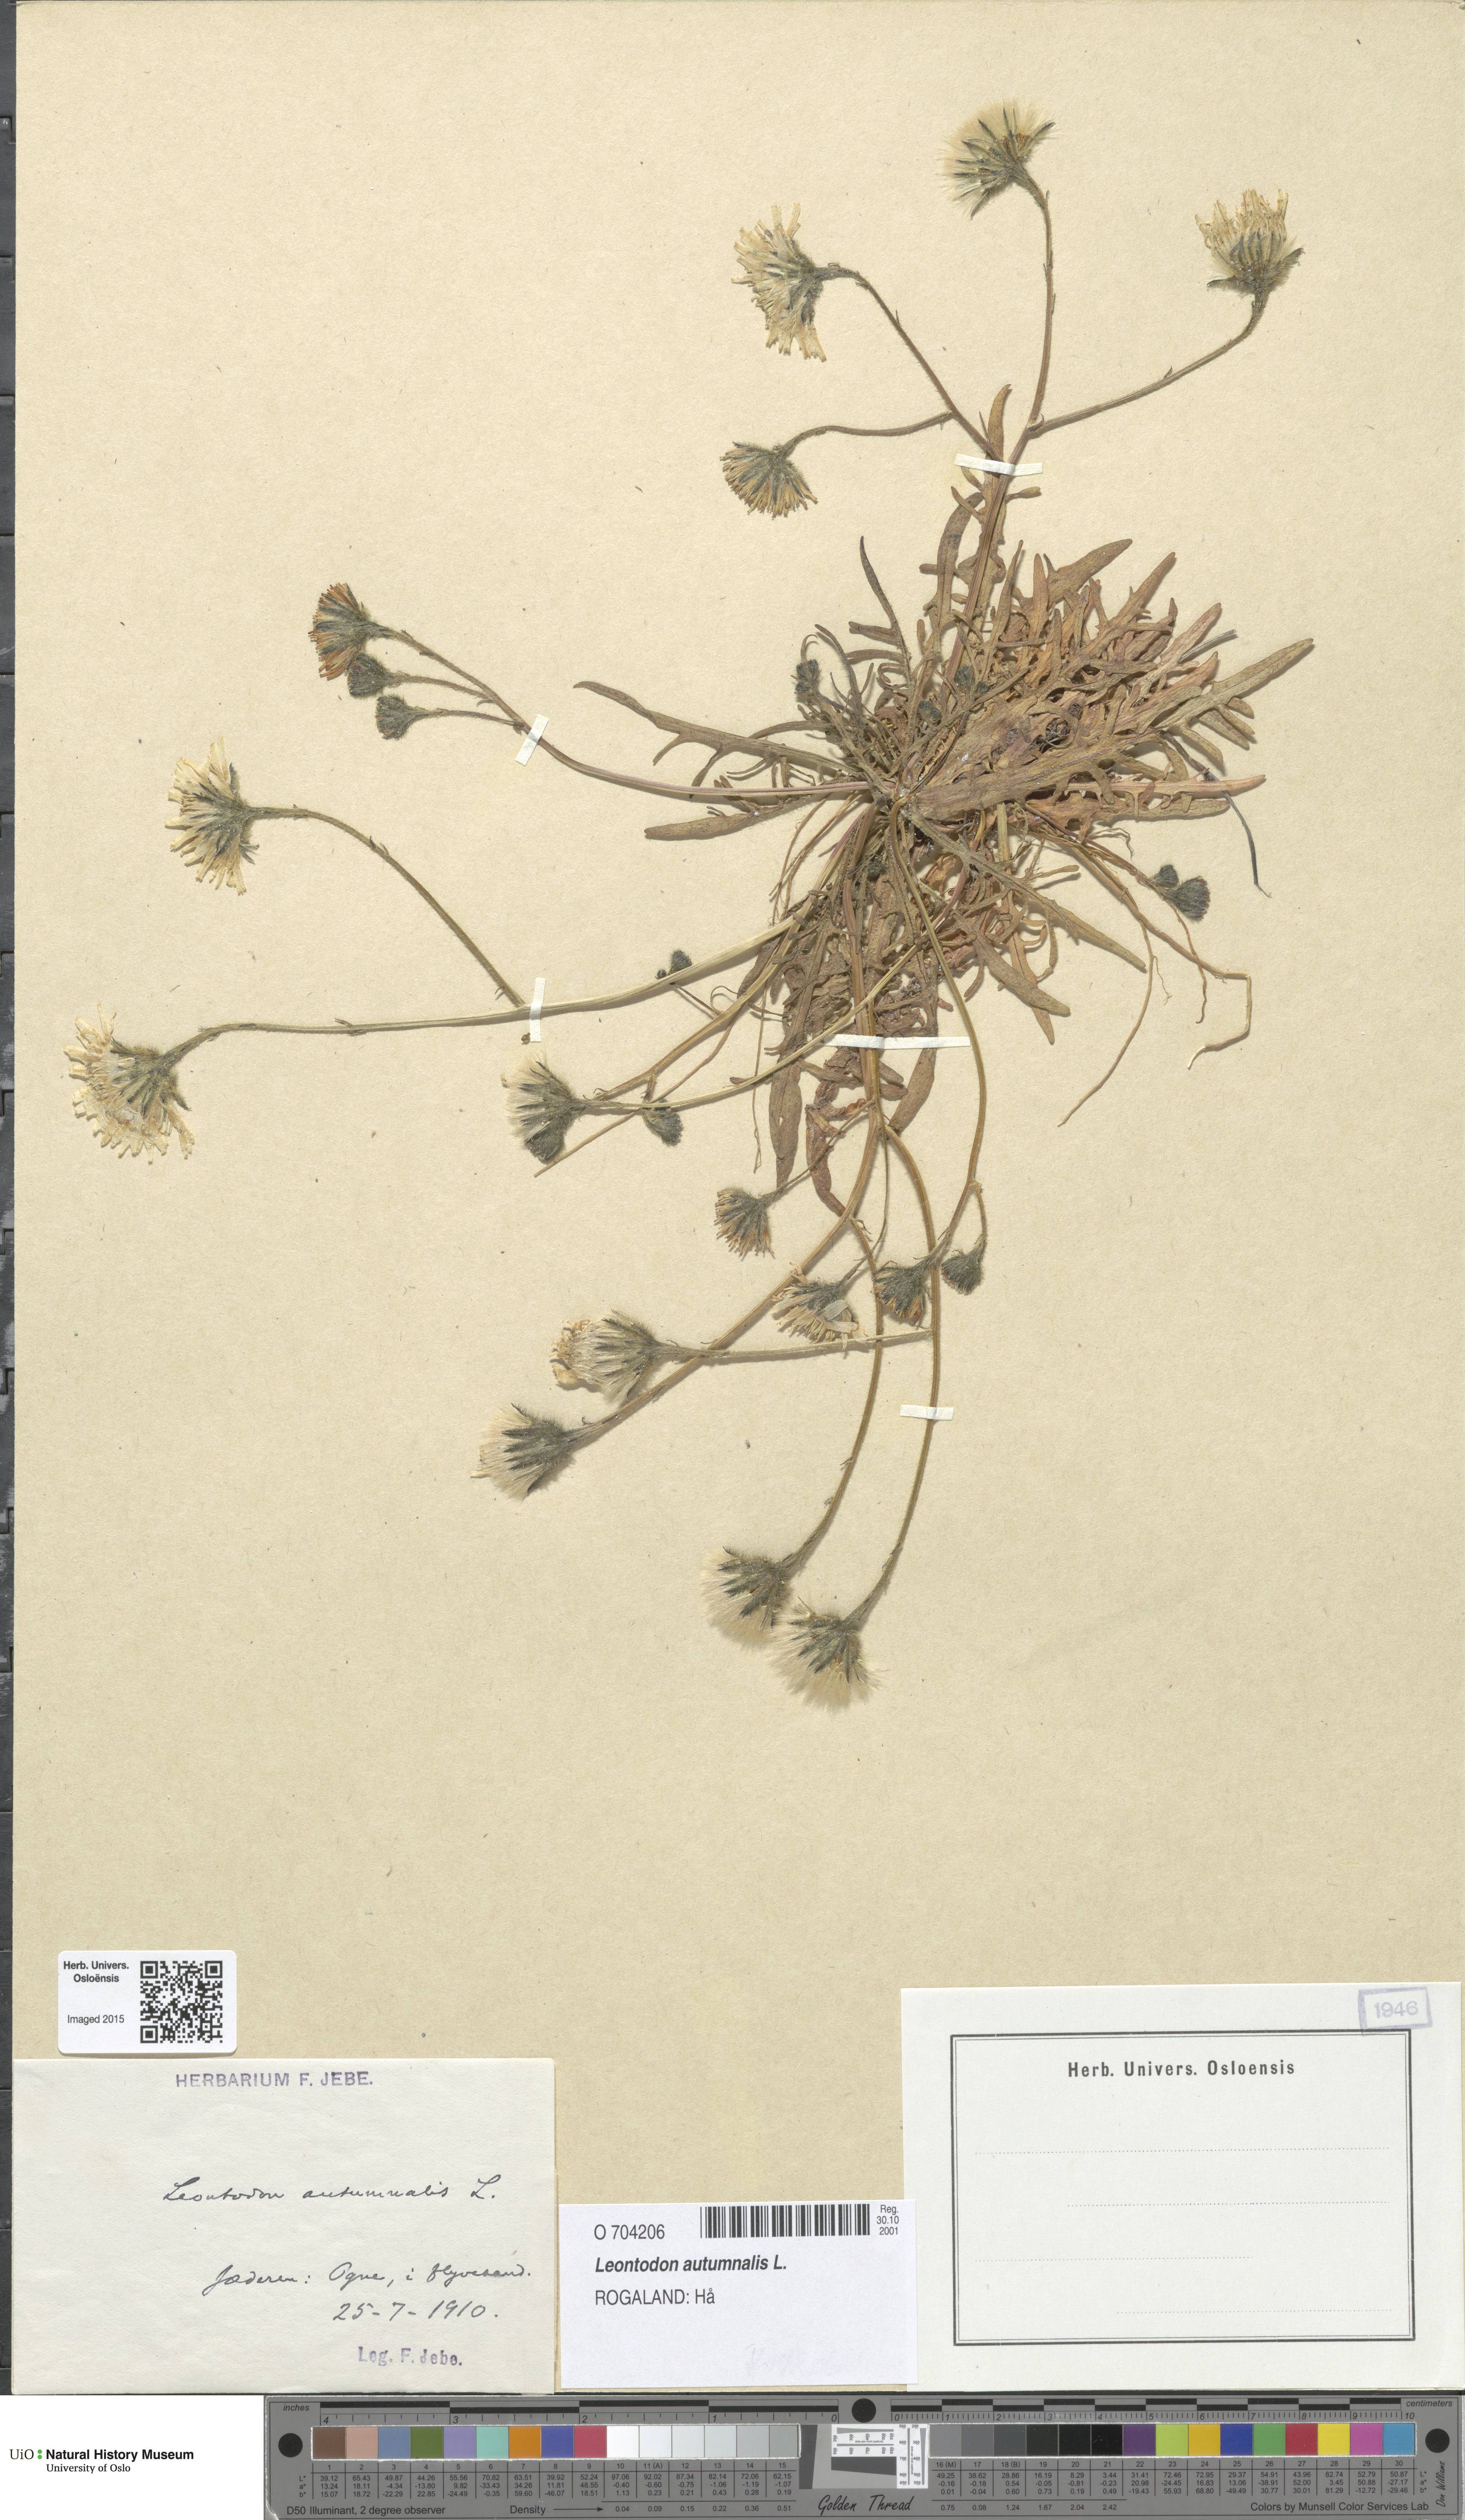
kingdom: Plantae
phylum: Tracheophyta
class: Magnoliopsida
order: Asterales
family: Asteraceae
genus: Scorzoneroides
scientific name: Scorzoneroides autumnalis
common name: Autumn hawkbit
